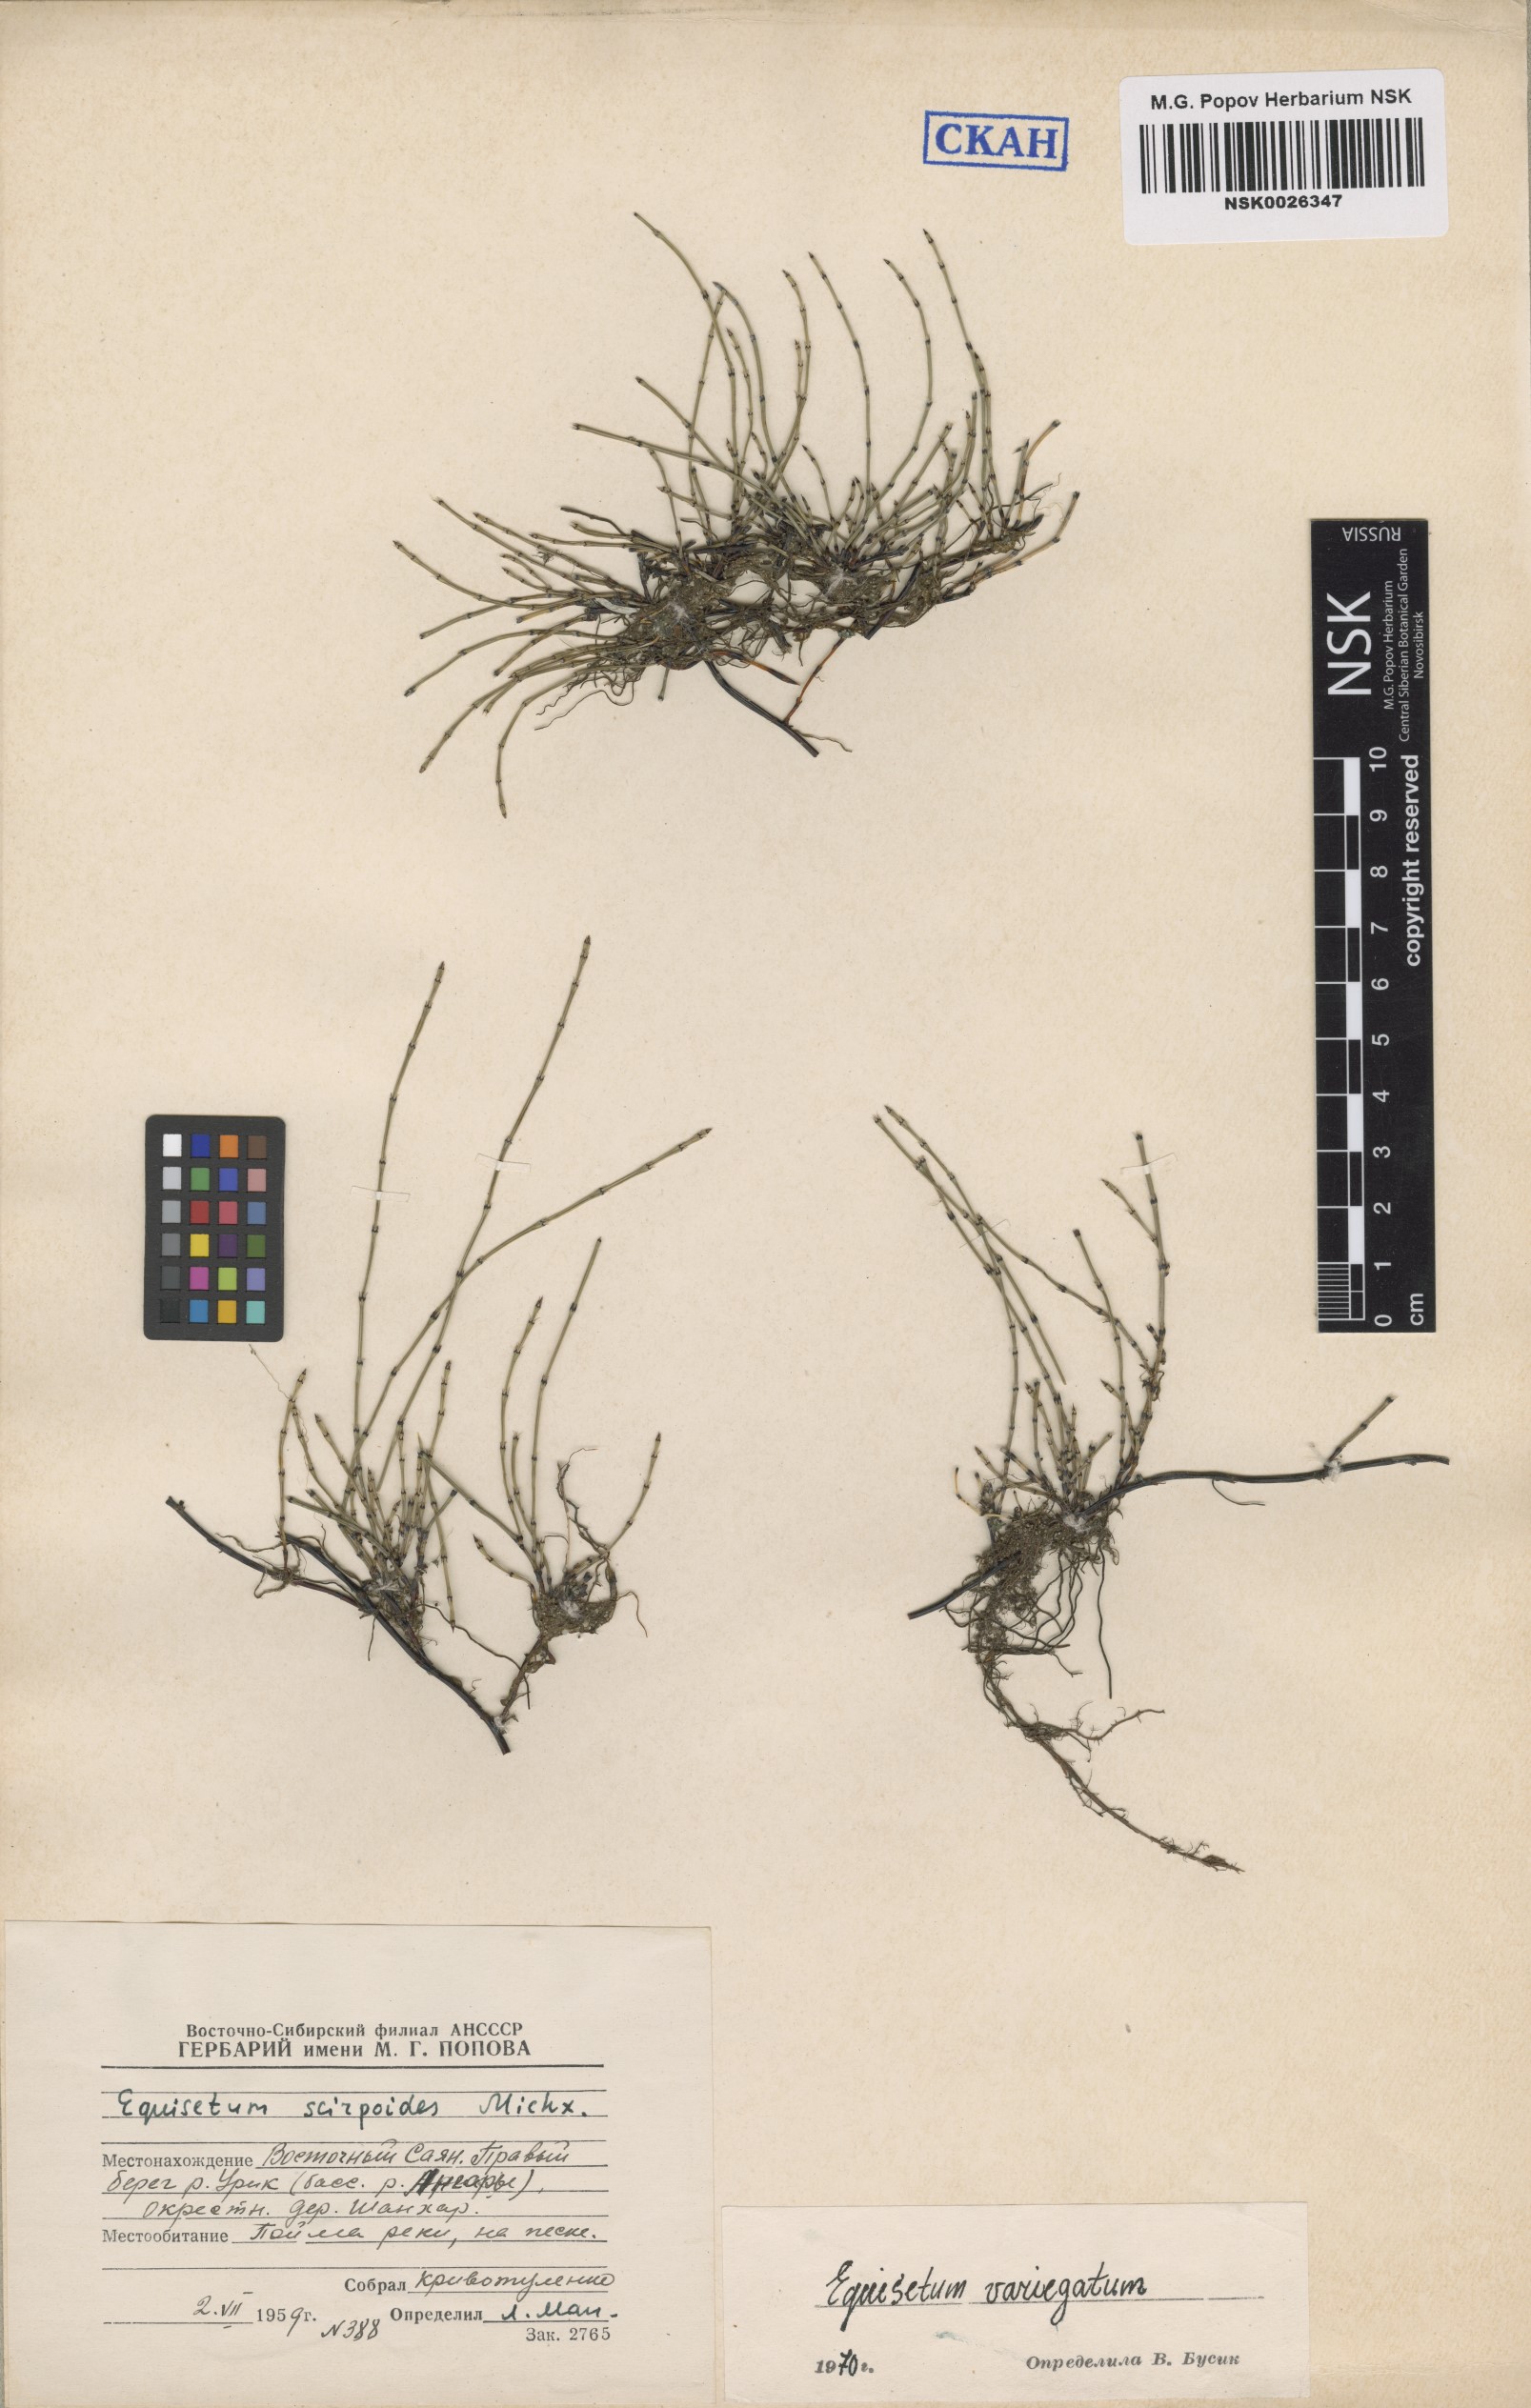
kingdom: Plantae
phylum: Tracheophyta
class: Polypodiopsida
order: Equisetales
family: Equisetaceae
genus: Equisetum
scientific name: Equisetum variegatum
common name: Variegated horsetail
